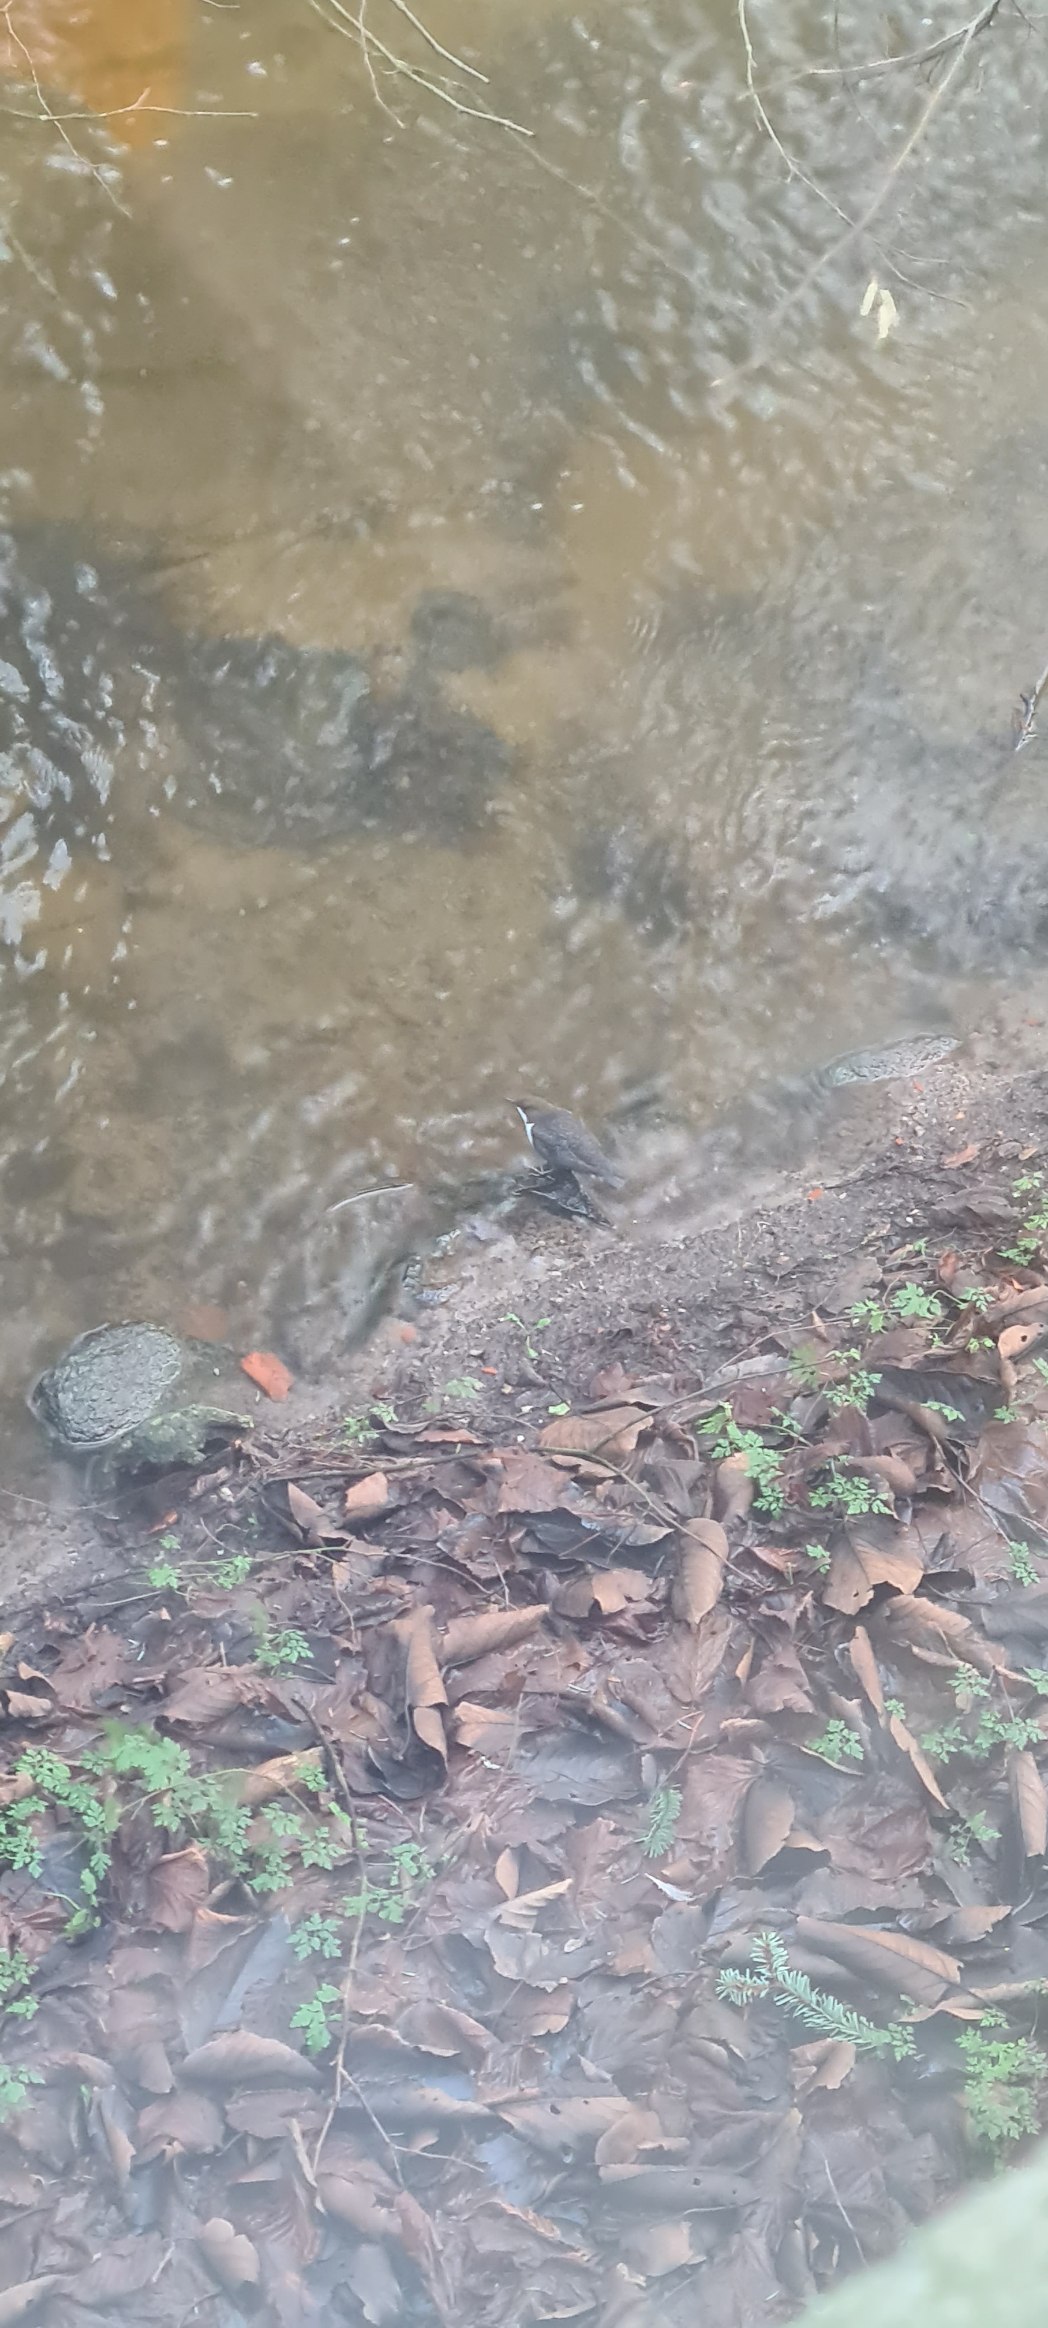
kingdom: Animalia
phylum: Chordata
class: Aves
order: Passeriformes
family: Cinclidae
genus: Cinclus
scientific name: Cinclus cinclus
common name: Vandstær
